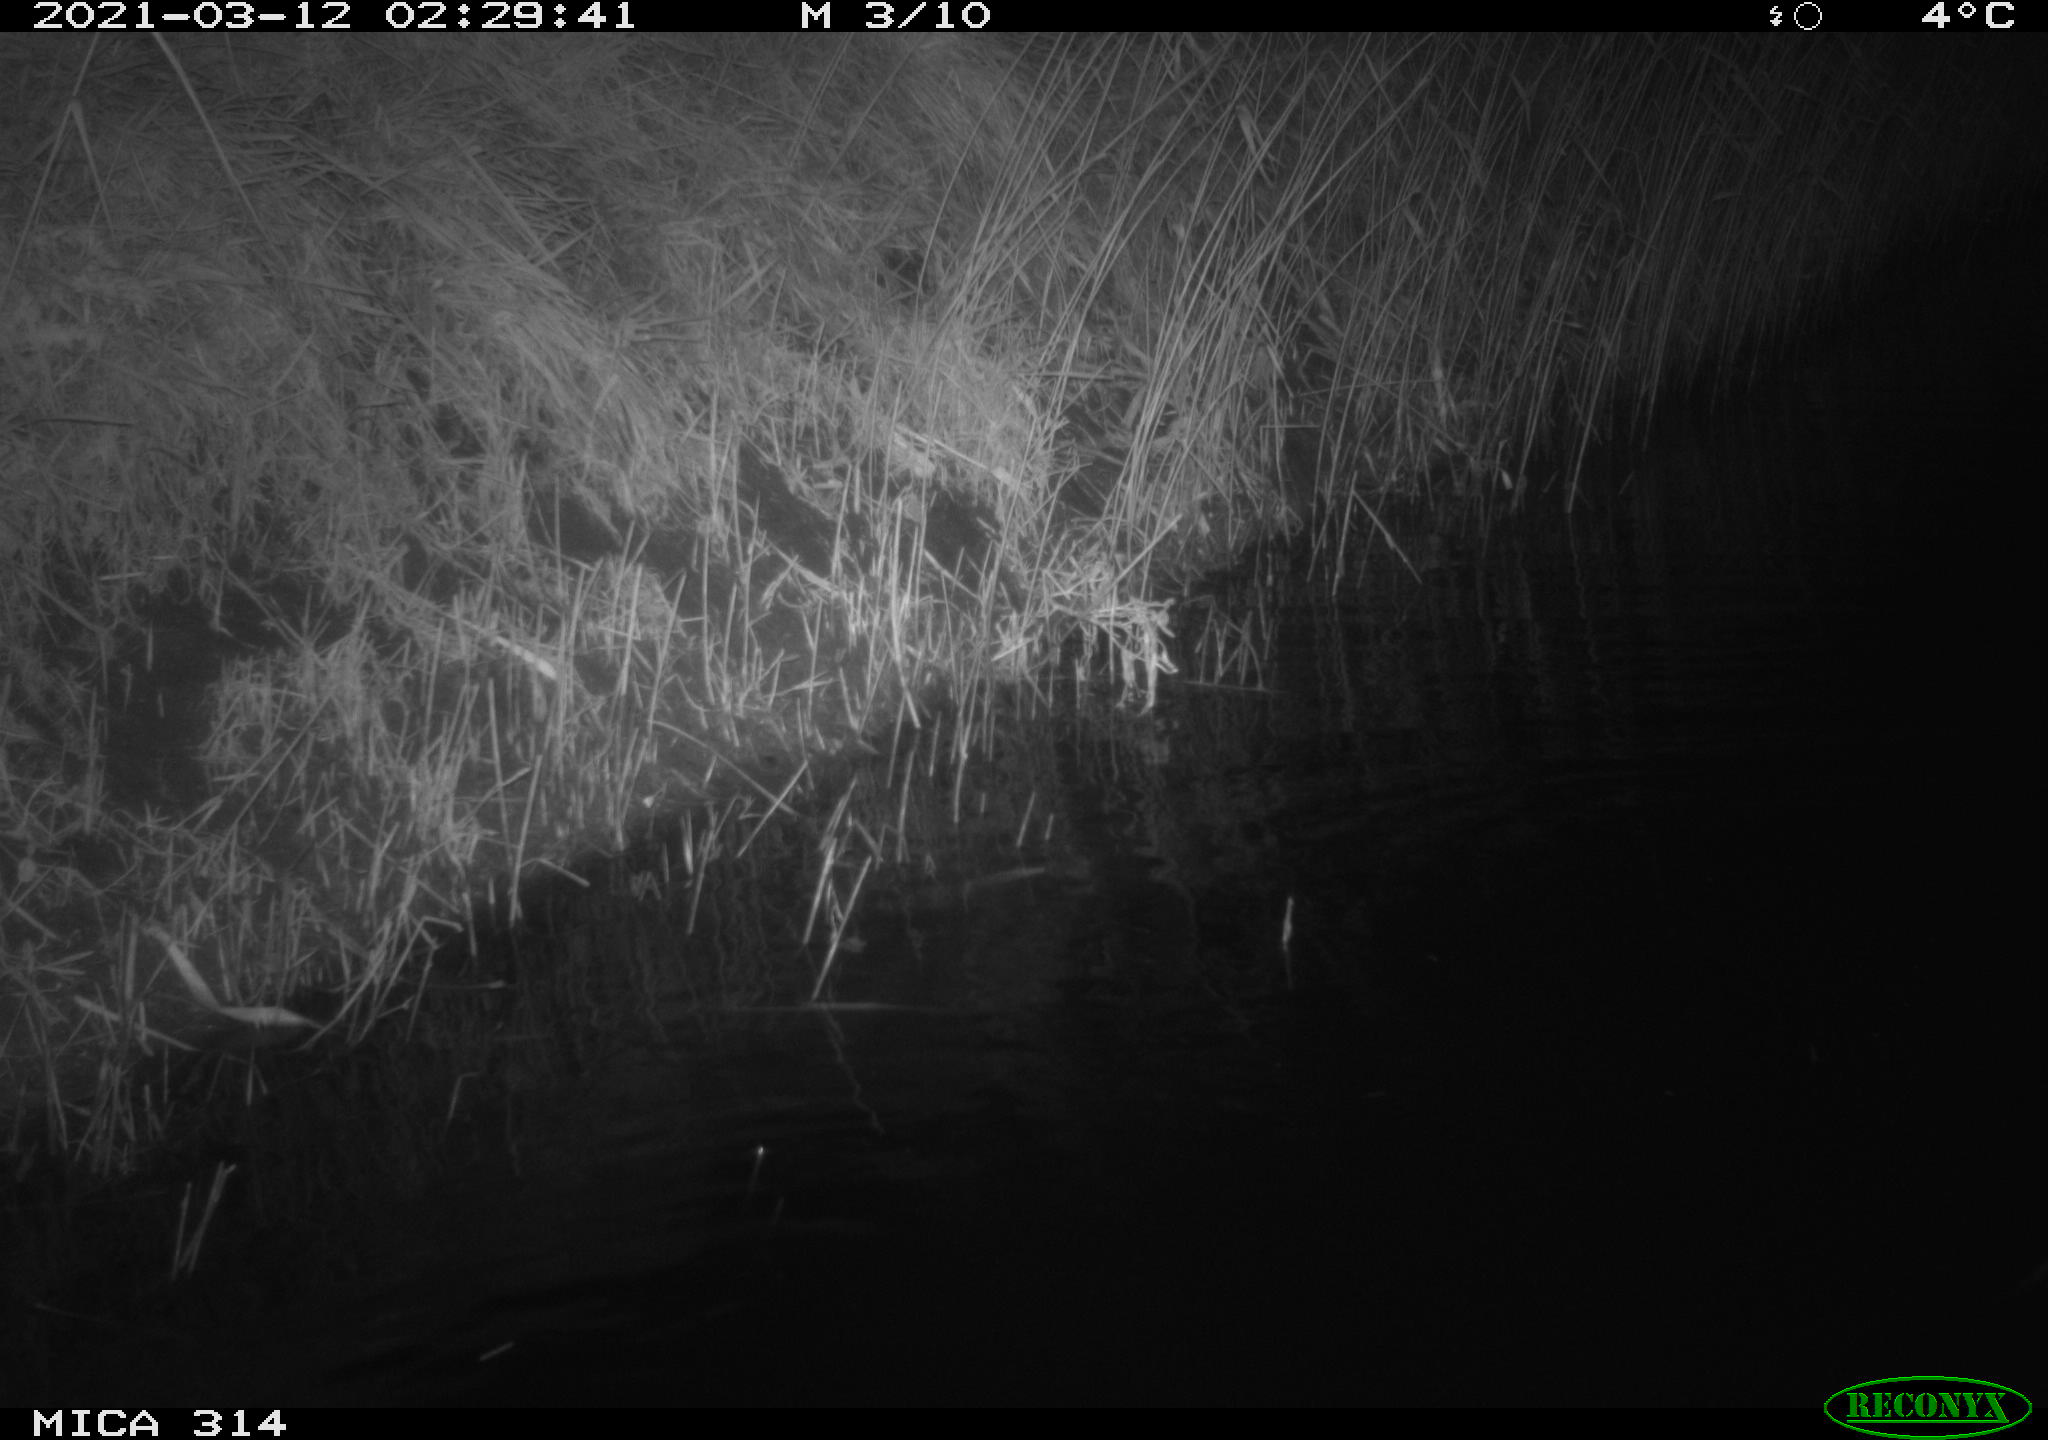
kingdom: Animalia
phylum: Chordata
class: Aves
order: Anseriformes
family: Anatidae
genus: Anas
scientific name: Anas platyrhynchos
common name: Mallard
